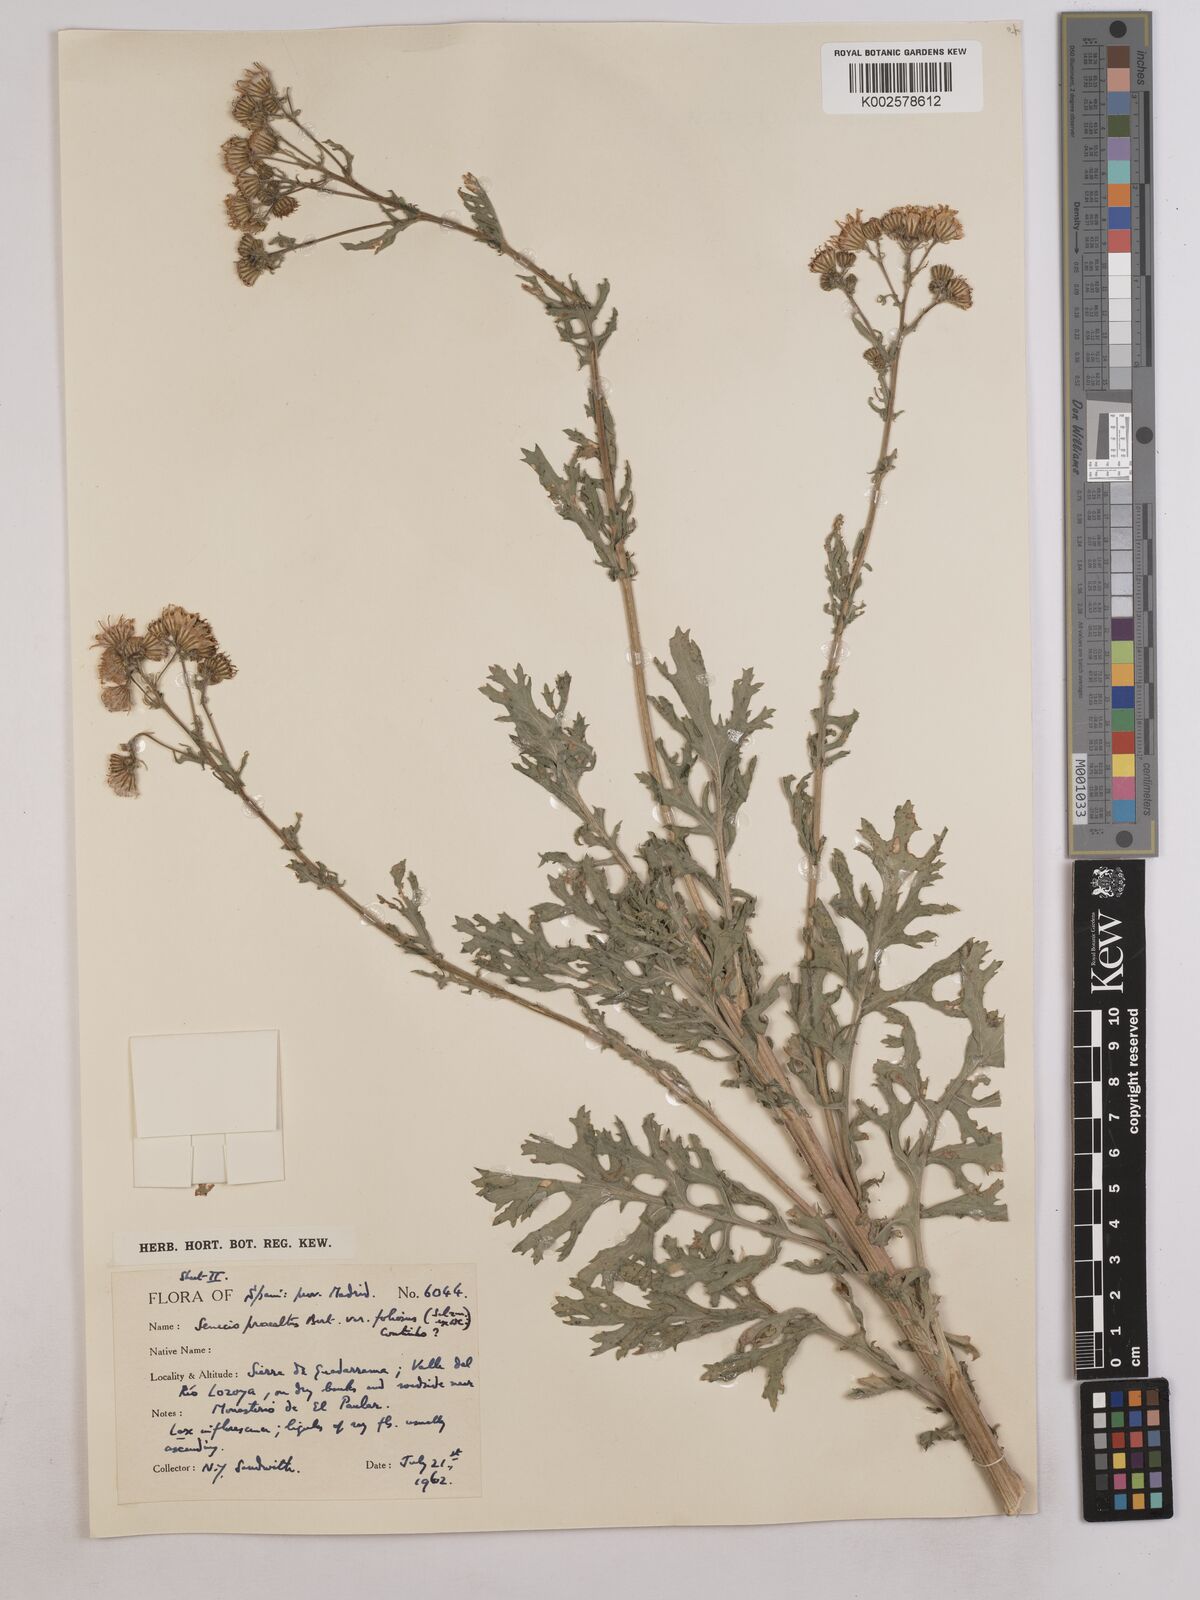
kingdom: Plantae
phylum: Tracheophyta
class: Magnoliopsida
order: Asterales
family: Asteraceae
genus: Jacobaea
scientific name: Jacobaea vulgaris
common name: Stinking willie
